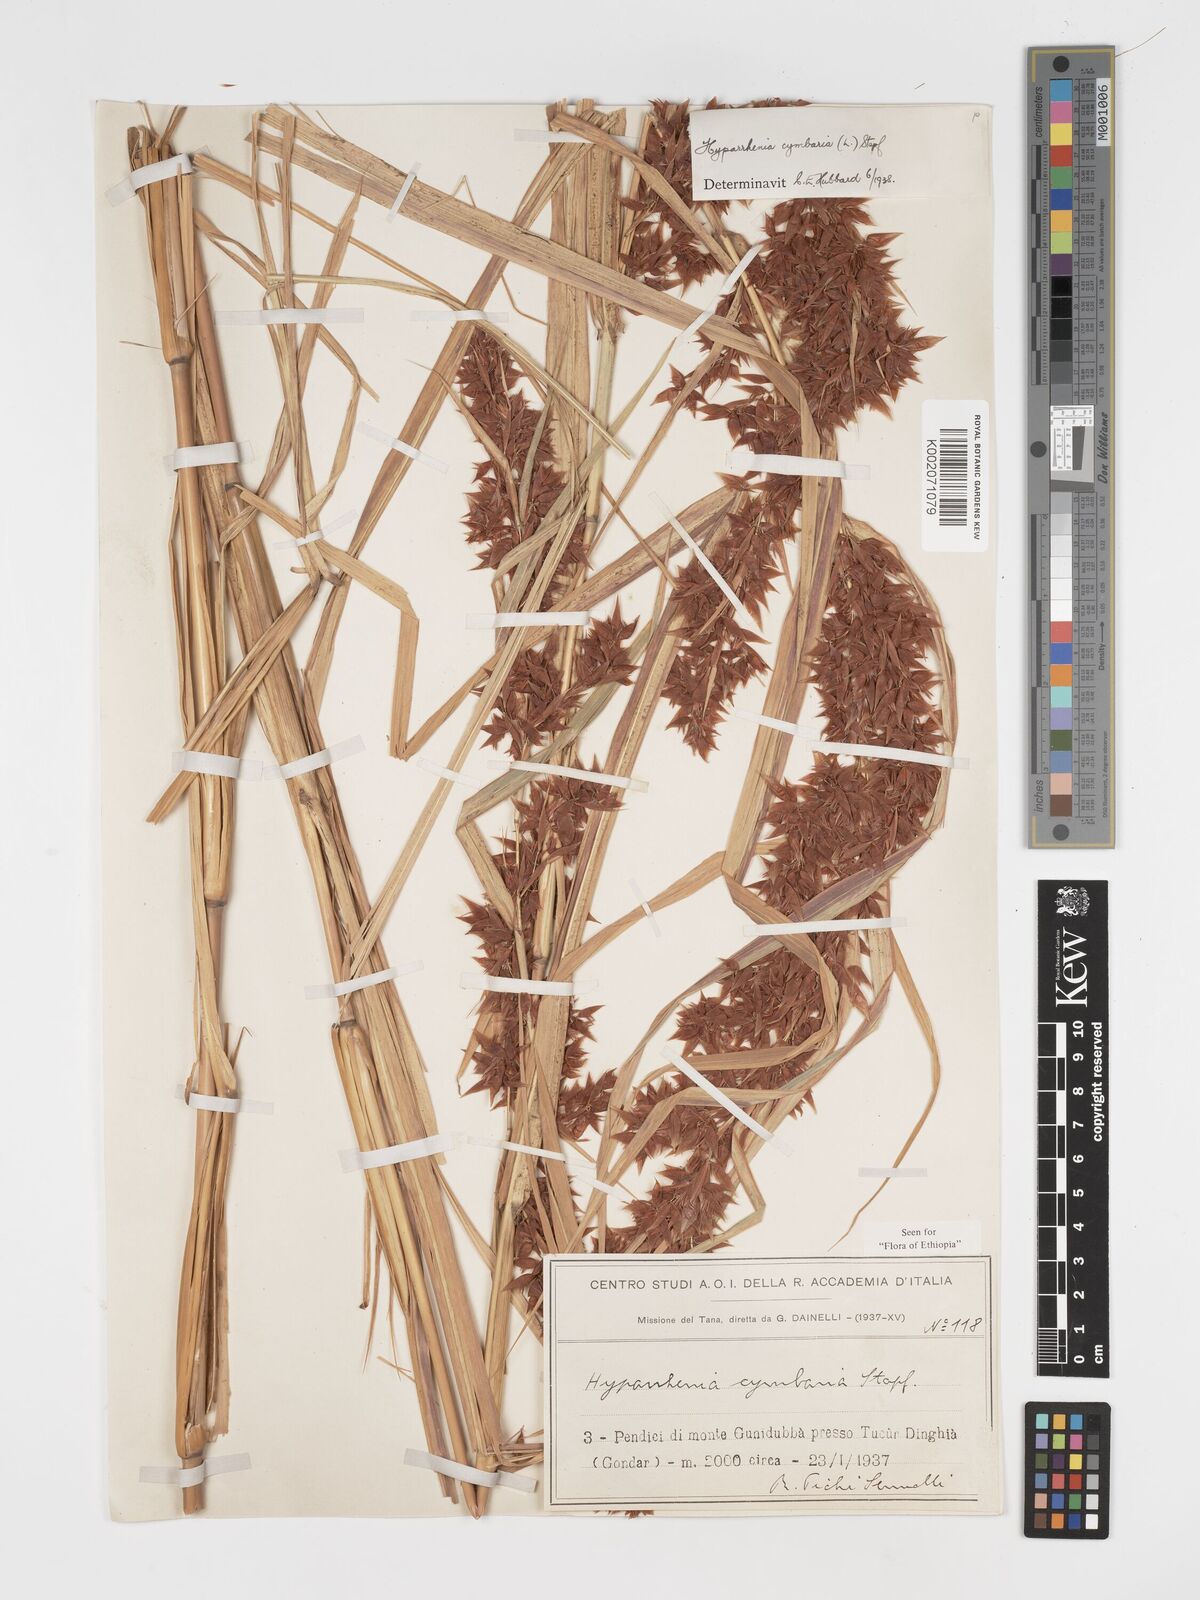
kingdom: Plantae
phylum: Tracheophyta
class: Liliopsida
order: Poales
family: Poaceae
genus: Hyparrhenia
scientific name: Hyparrhenia cymbaria
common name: Boat thatching grass
